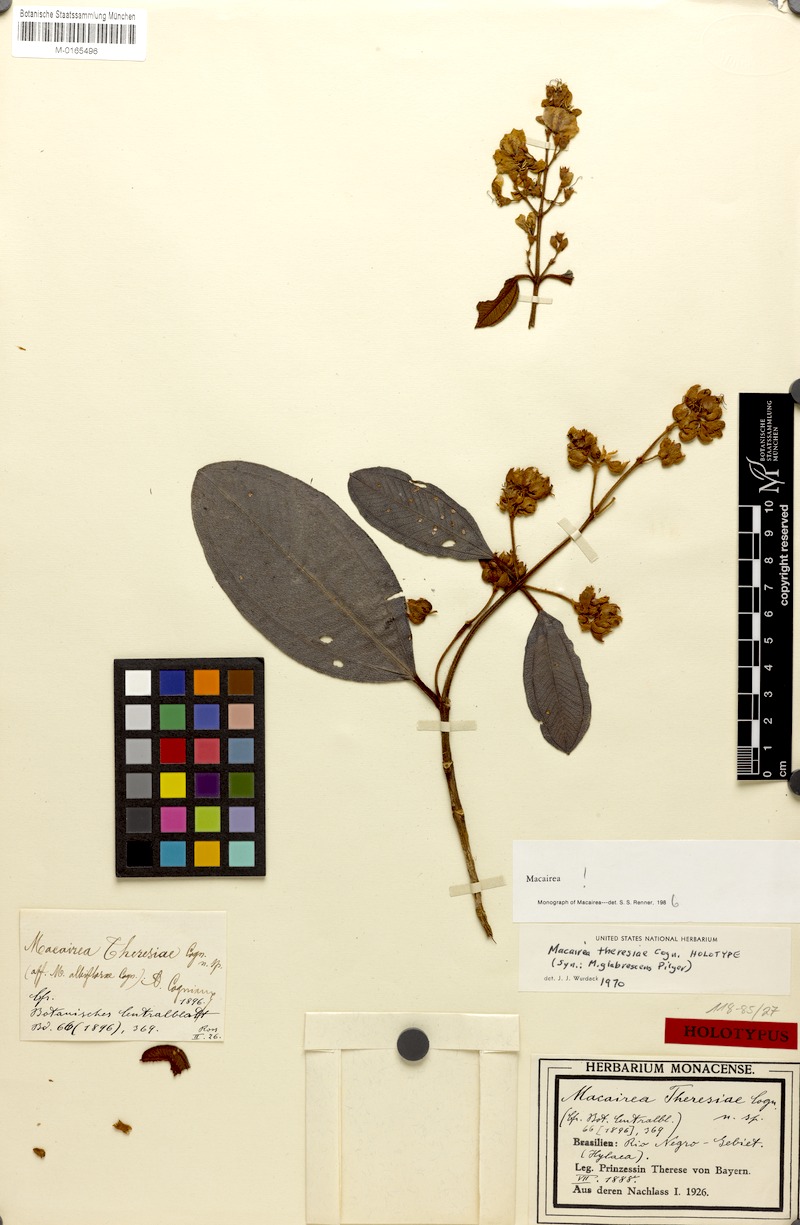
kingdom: Plantae
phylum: Tracheophyta
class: Magnoliopsida
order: Myrtales
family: Melastomataceae
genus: Macairea
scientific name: Macairea theresiae
